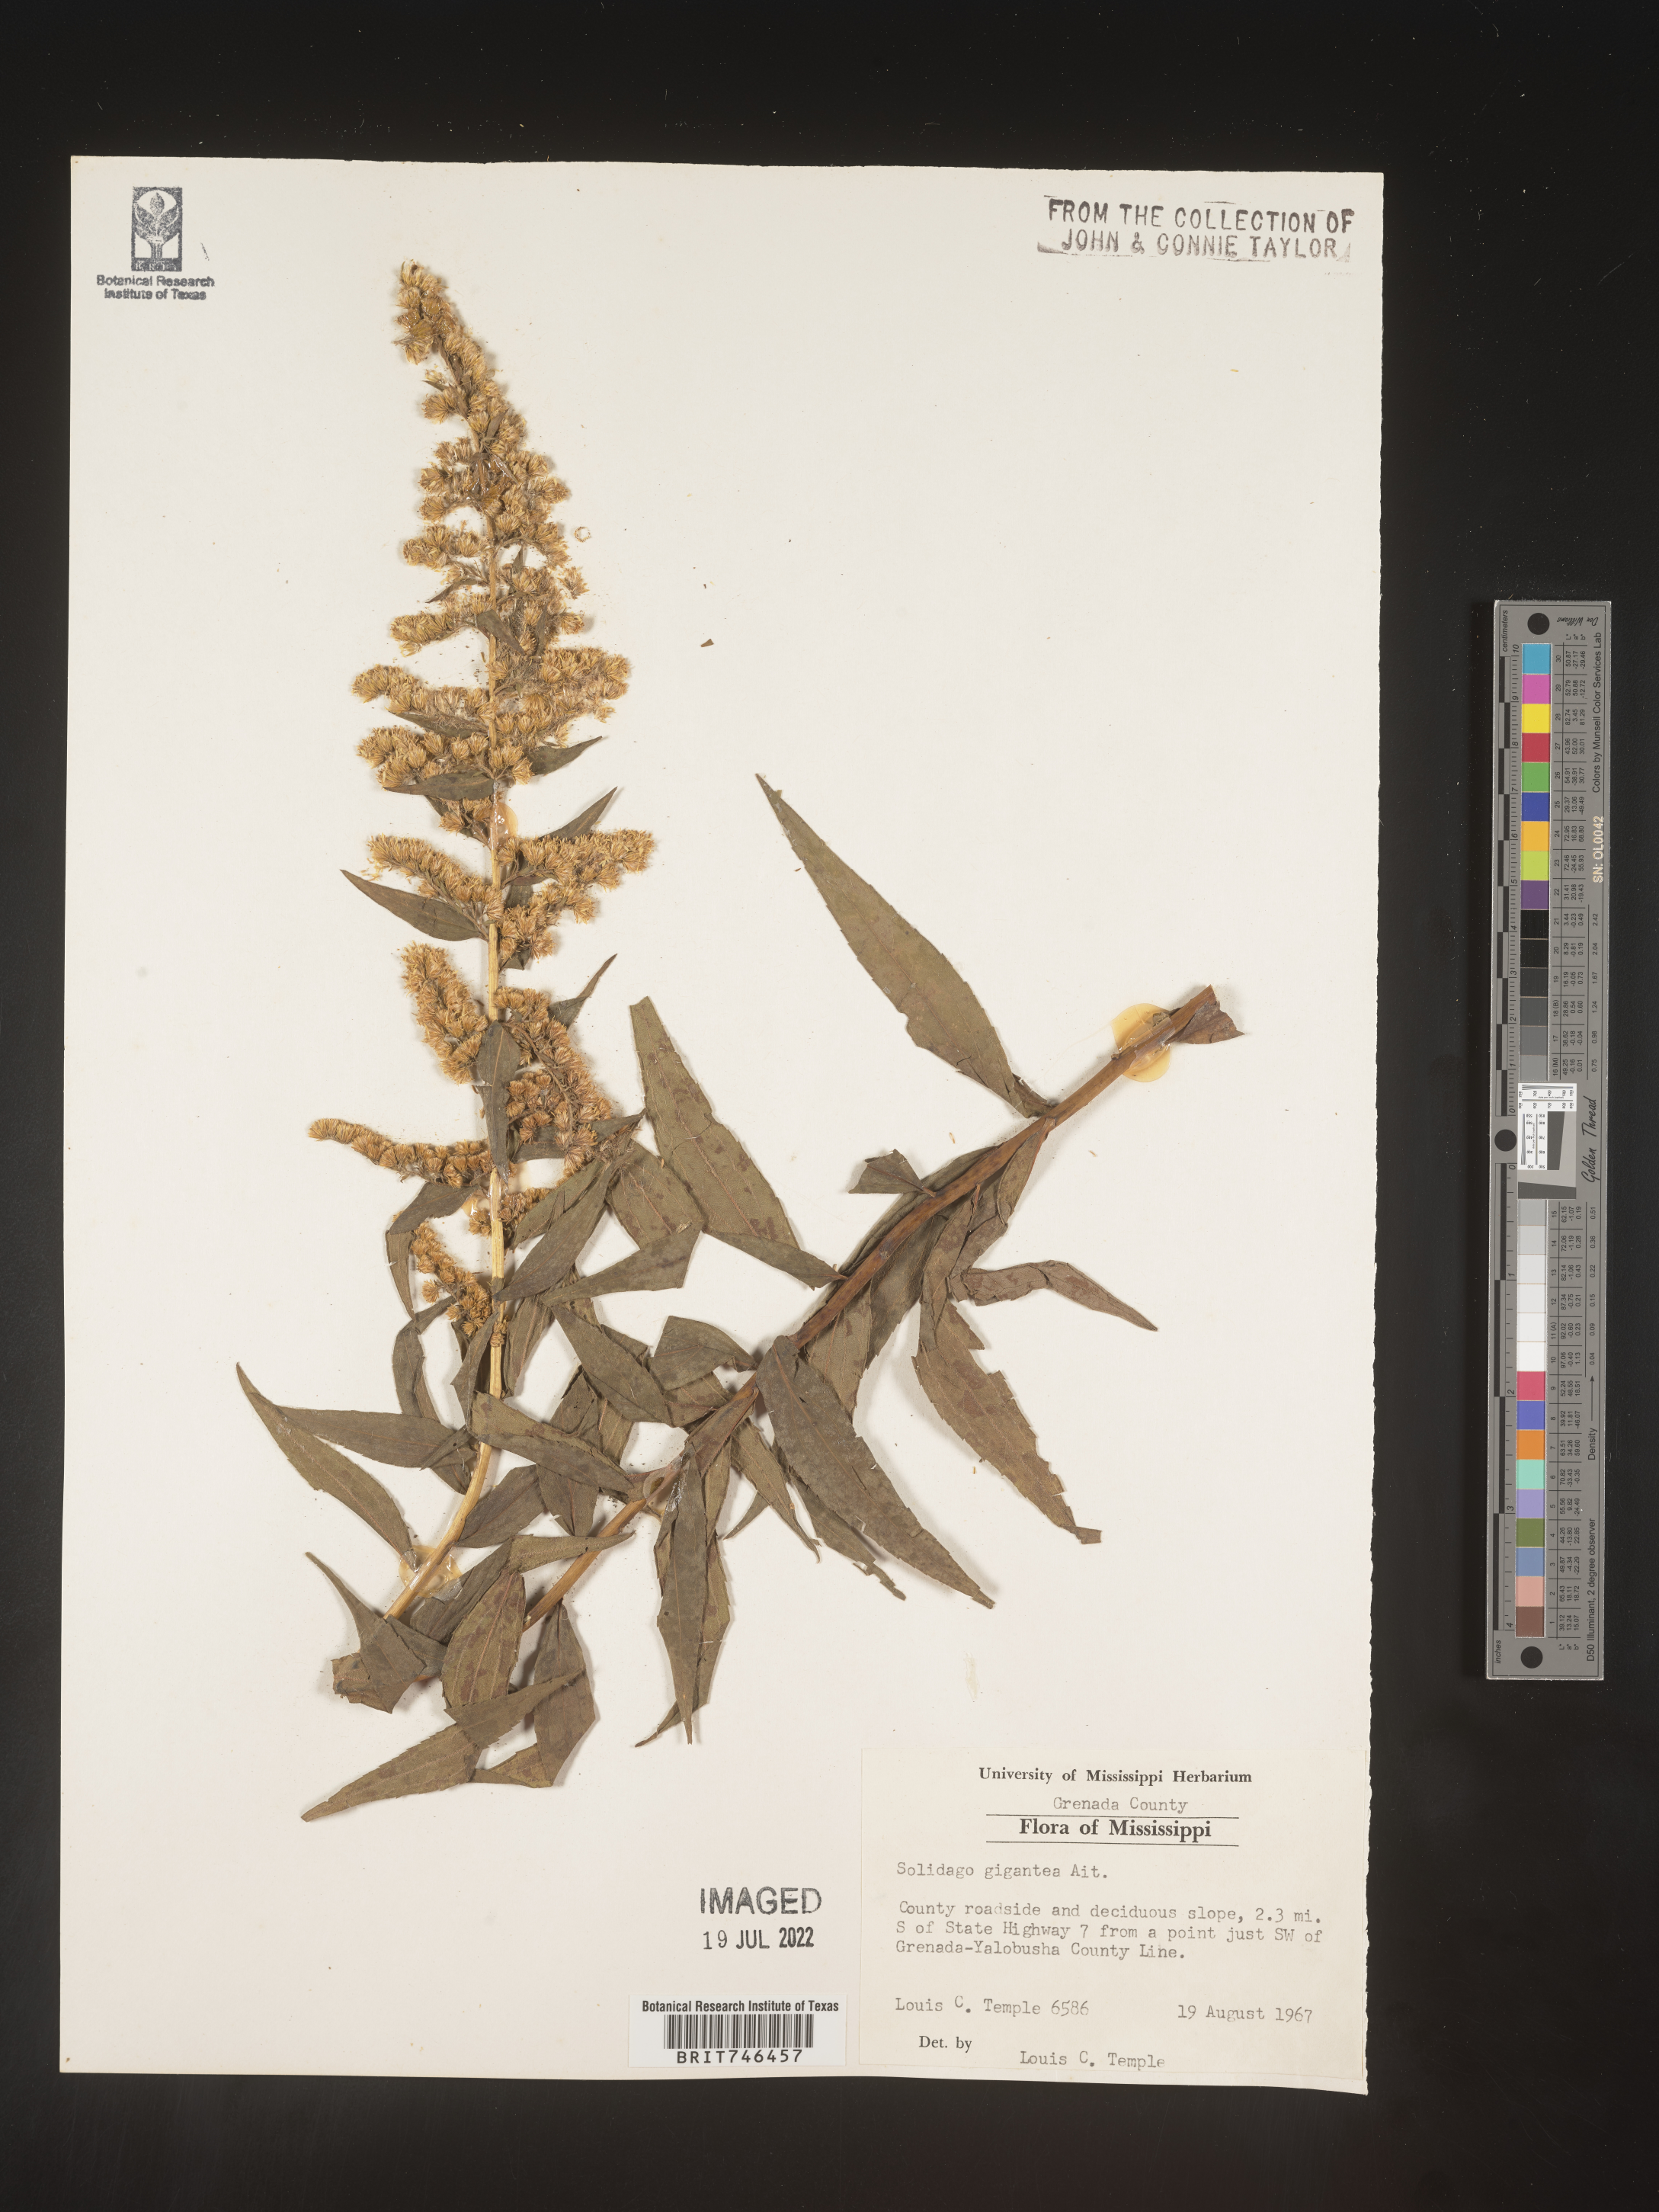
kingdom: Plantae
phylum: Tracheophyta
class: Magnoliopsida
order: Asterales
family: Asteraceae
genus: Solidago
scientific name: Solidago gigantea
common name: Giant goldenrod
